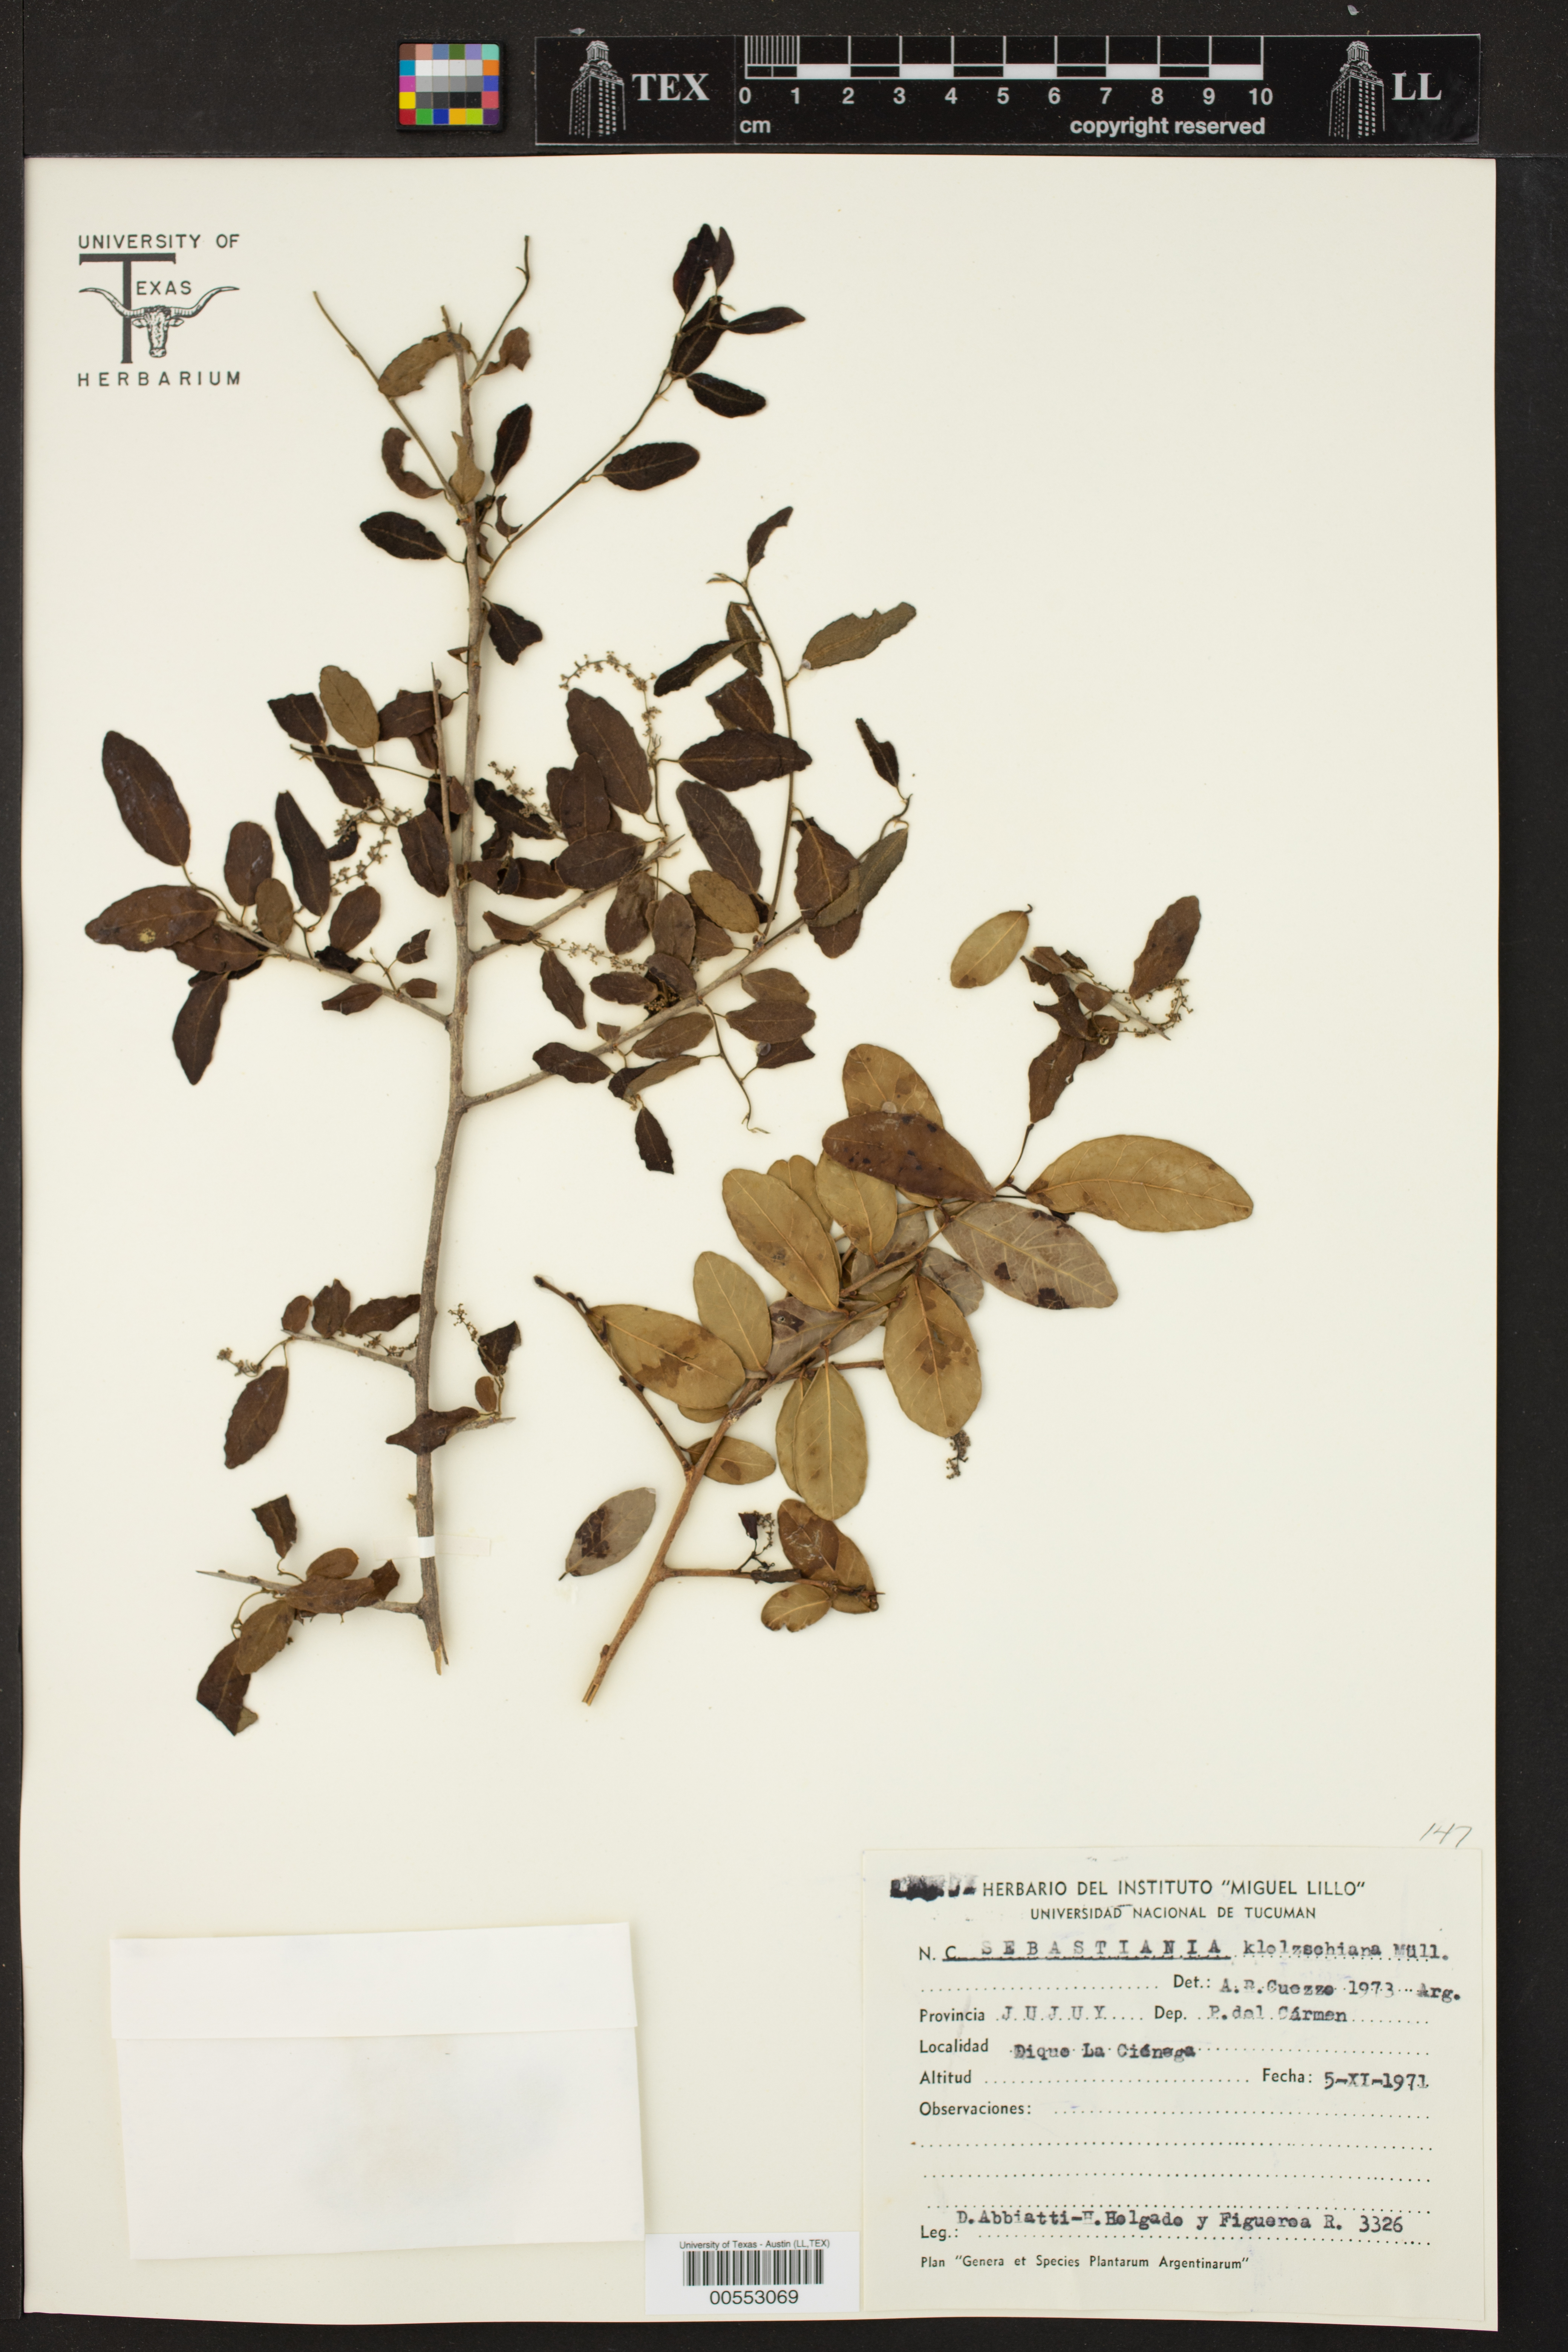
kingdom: Plantae
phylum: Tracheophyta
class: Magnoliopsida
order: Malpighiales
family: Euphorbiaceae
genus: Sebastiania
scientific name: Sebastiania klotzschiana
